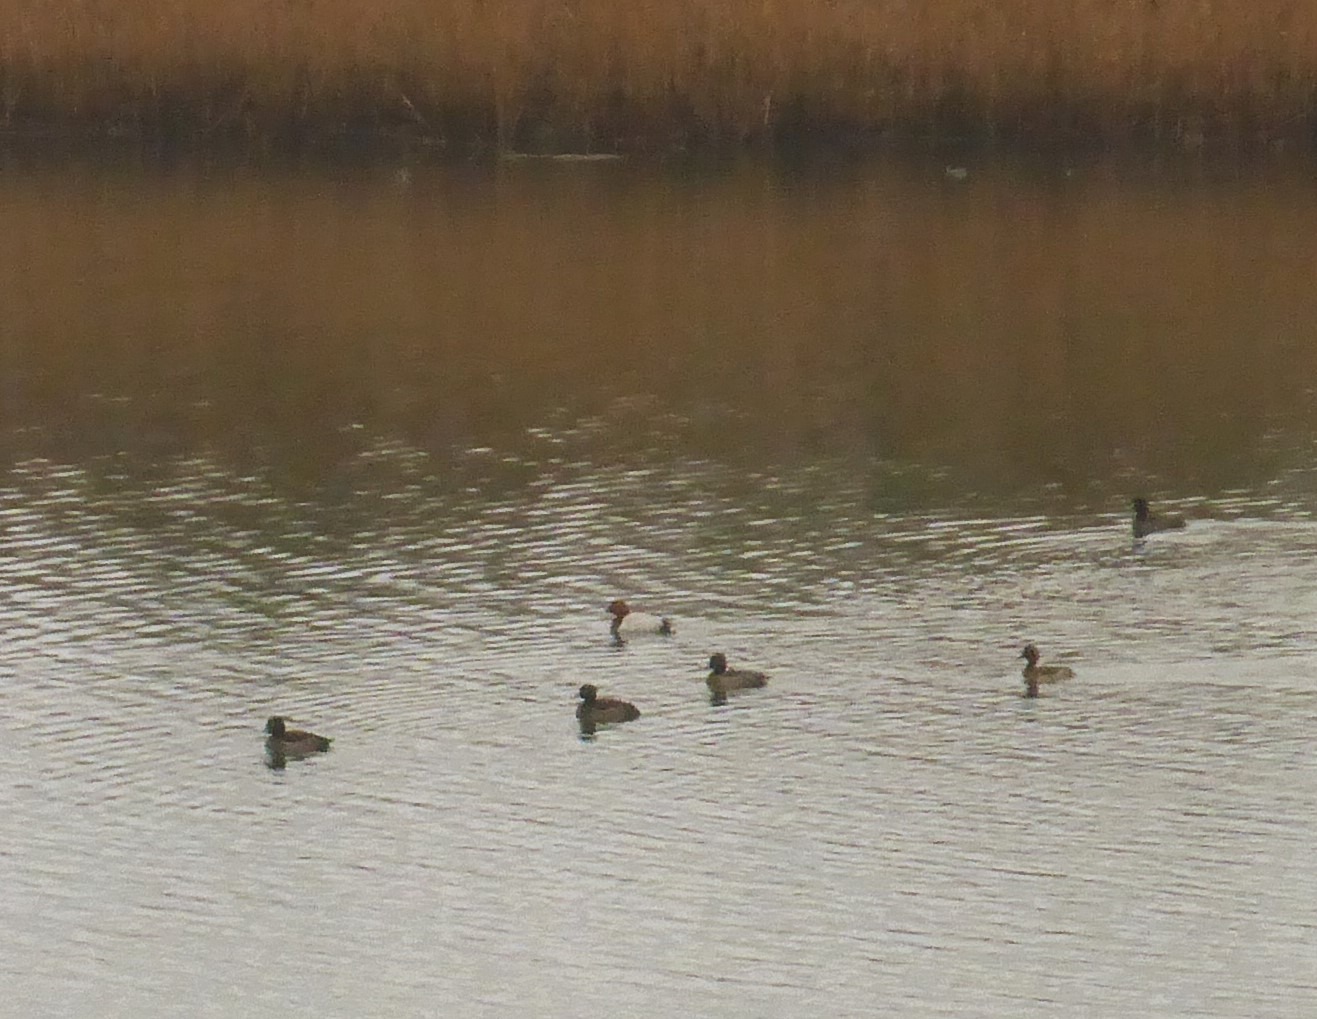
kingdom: Animalia
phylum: Chordata
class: Aves
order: Anseriformes
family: Anatidae
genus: Aythya
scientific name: Aythya ferina
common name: Taffeland
